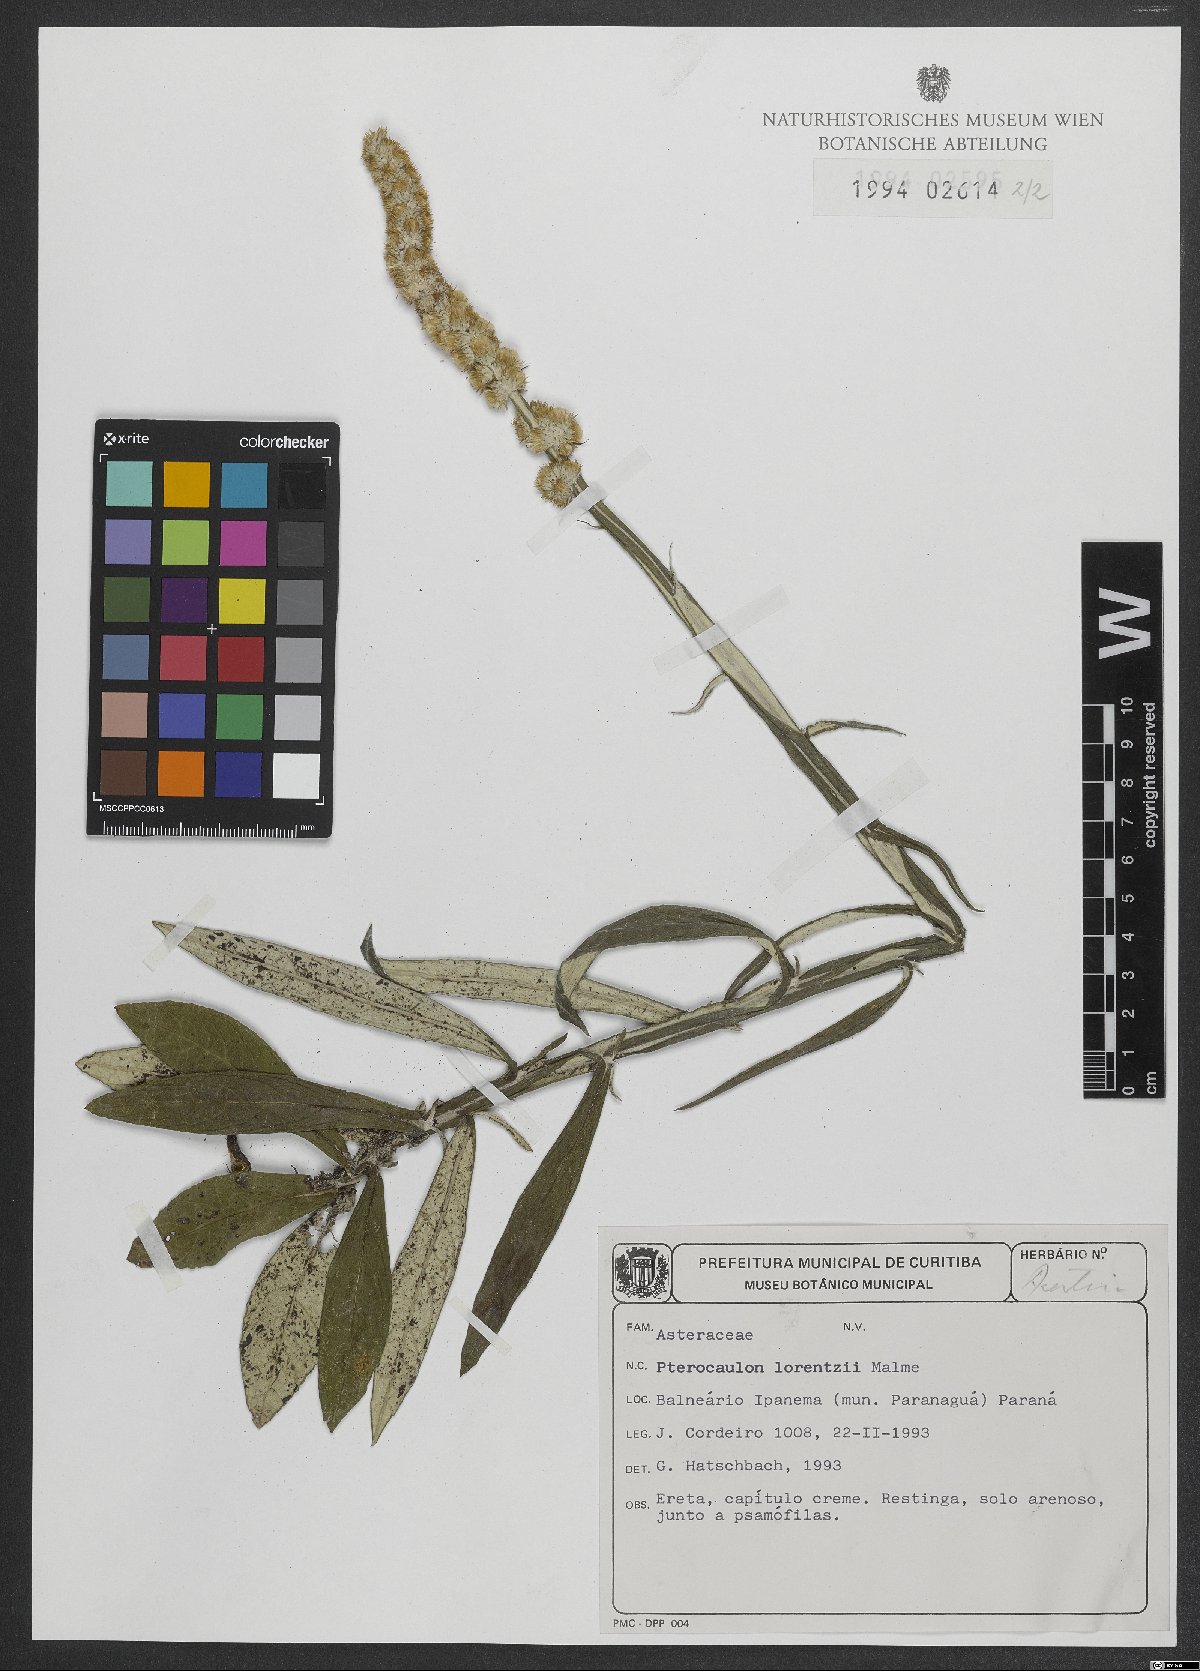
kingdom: Plantae
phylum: Tracheophyta
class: Magnoliopsida
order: Asterales
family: Asteraceae
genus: Pterocaulon
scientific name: Pterocaulon lorentzii
